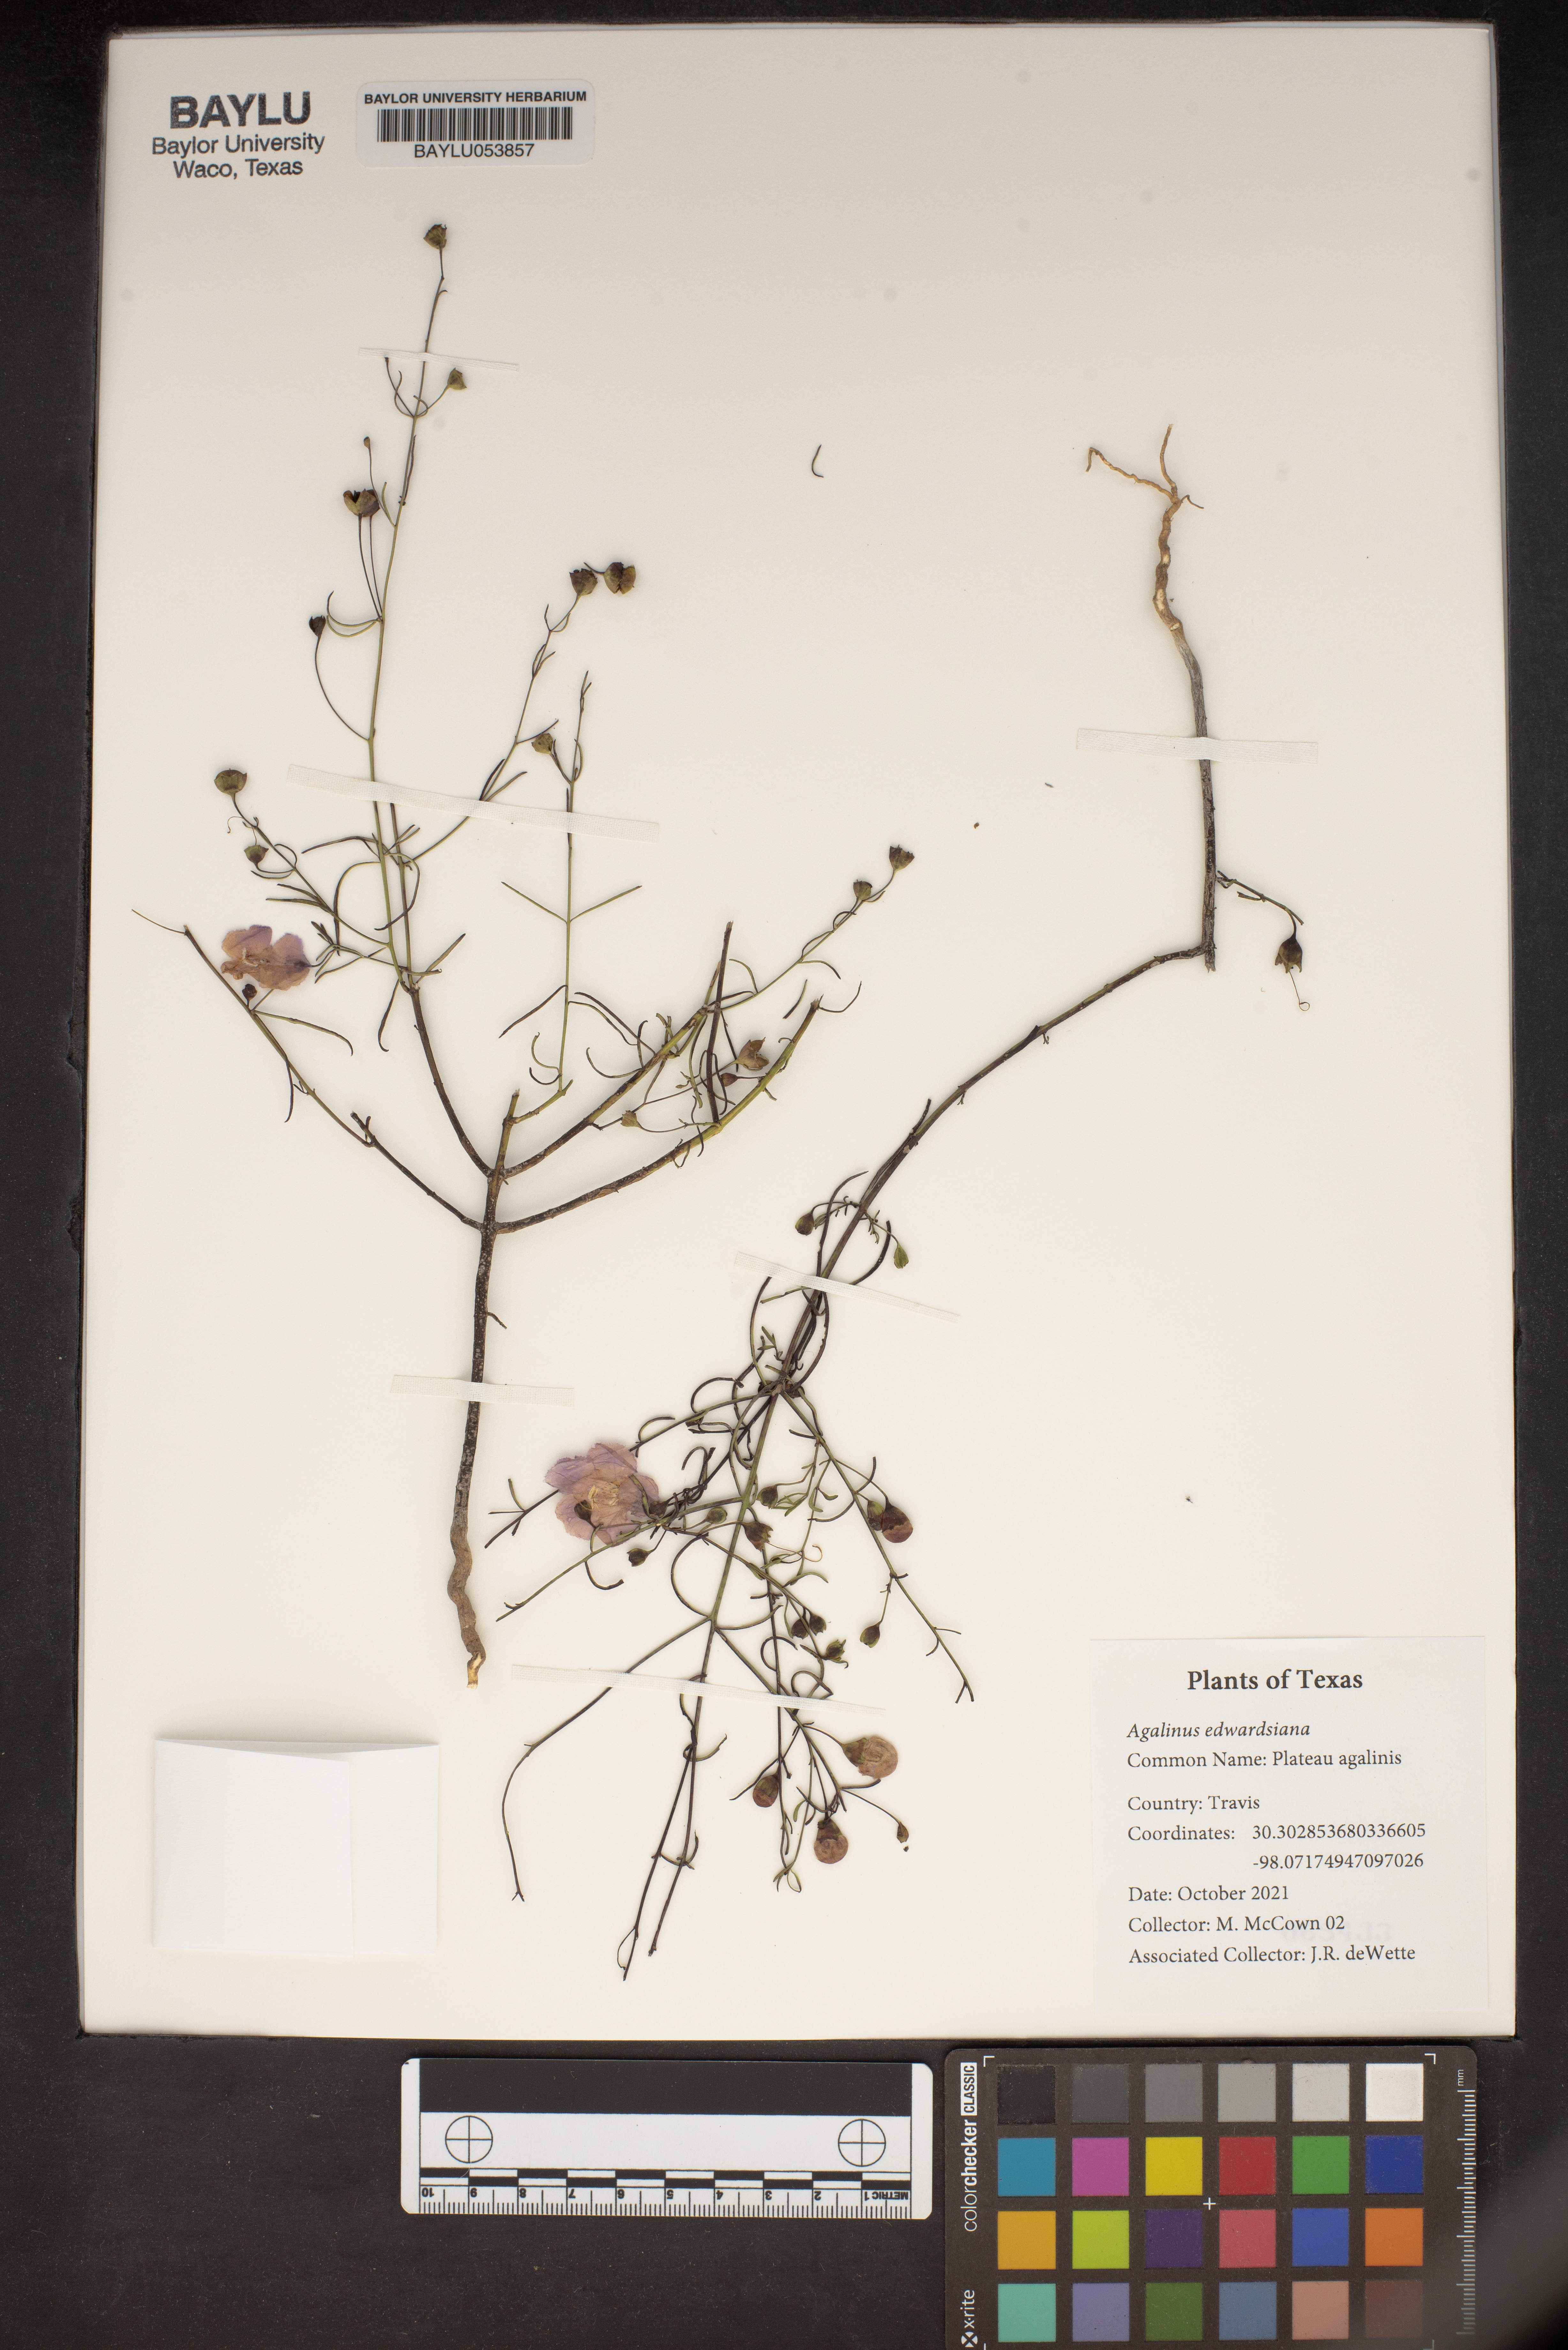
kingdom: Plantae
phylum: Tracheophyta
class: Magnoliopsida
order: Lamiales
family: Orobanchaceae
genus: Agalinis
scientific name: Agalinis edwardsiana
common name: Plateau-gerardia
